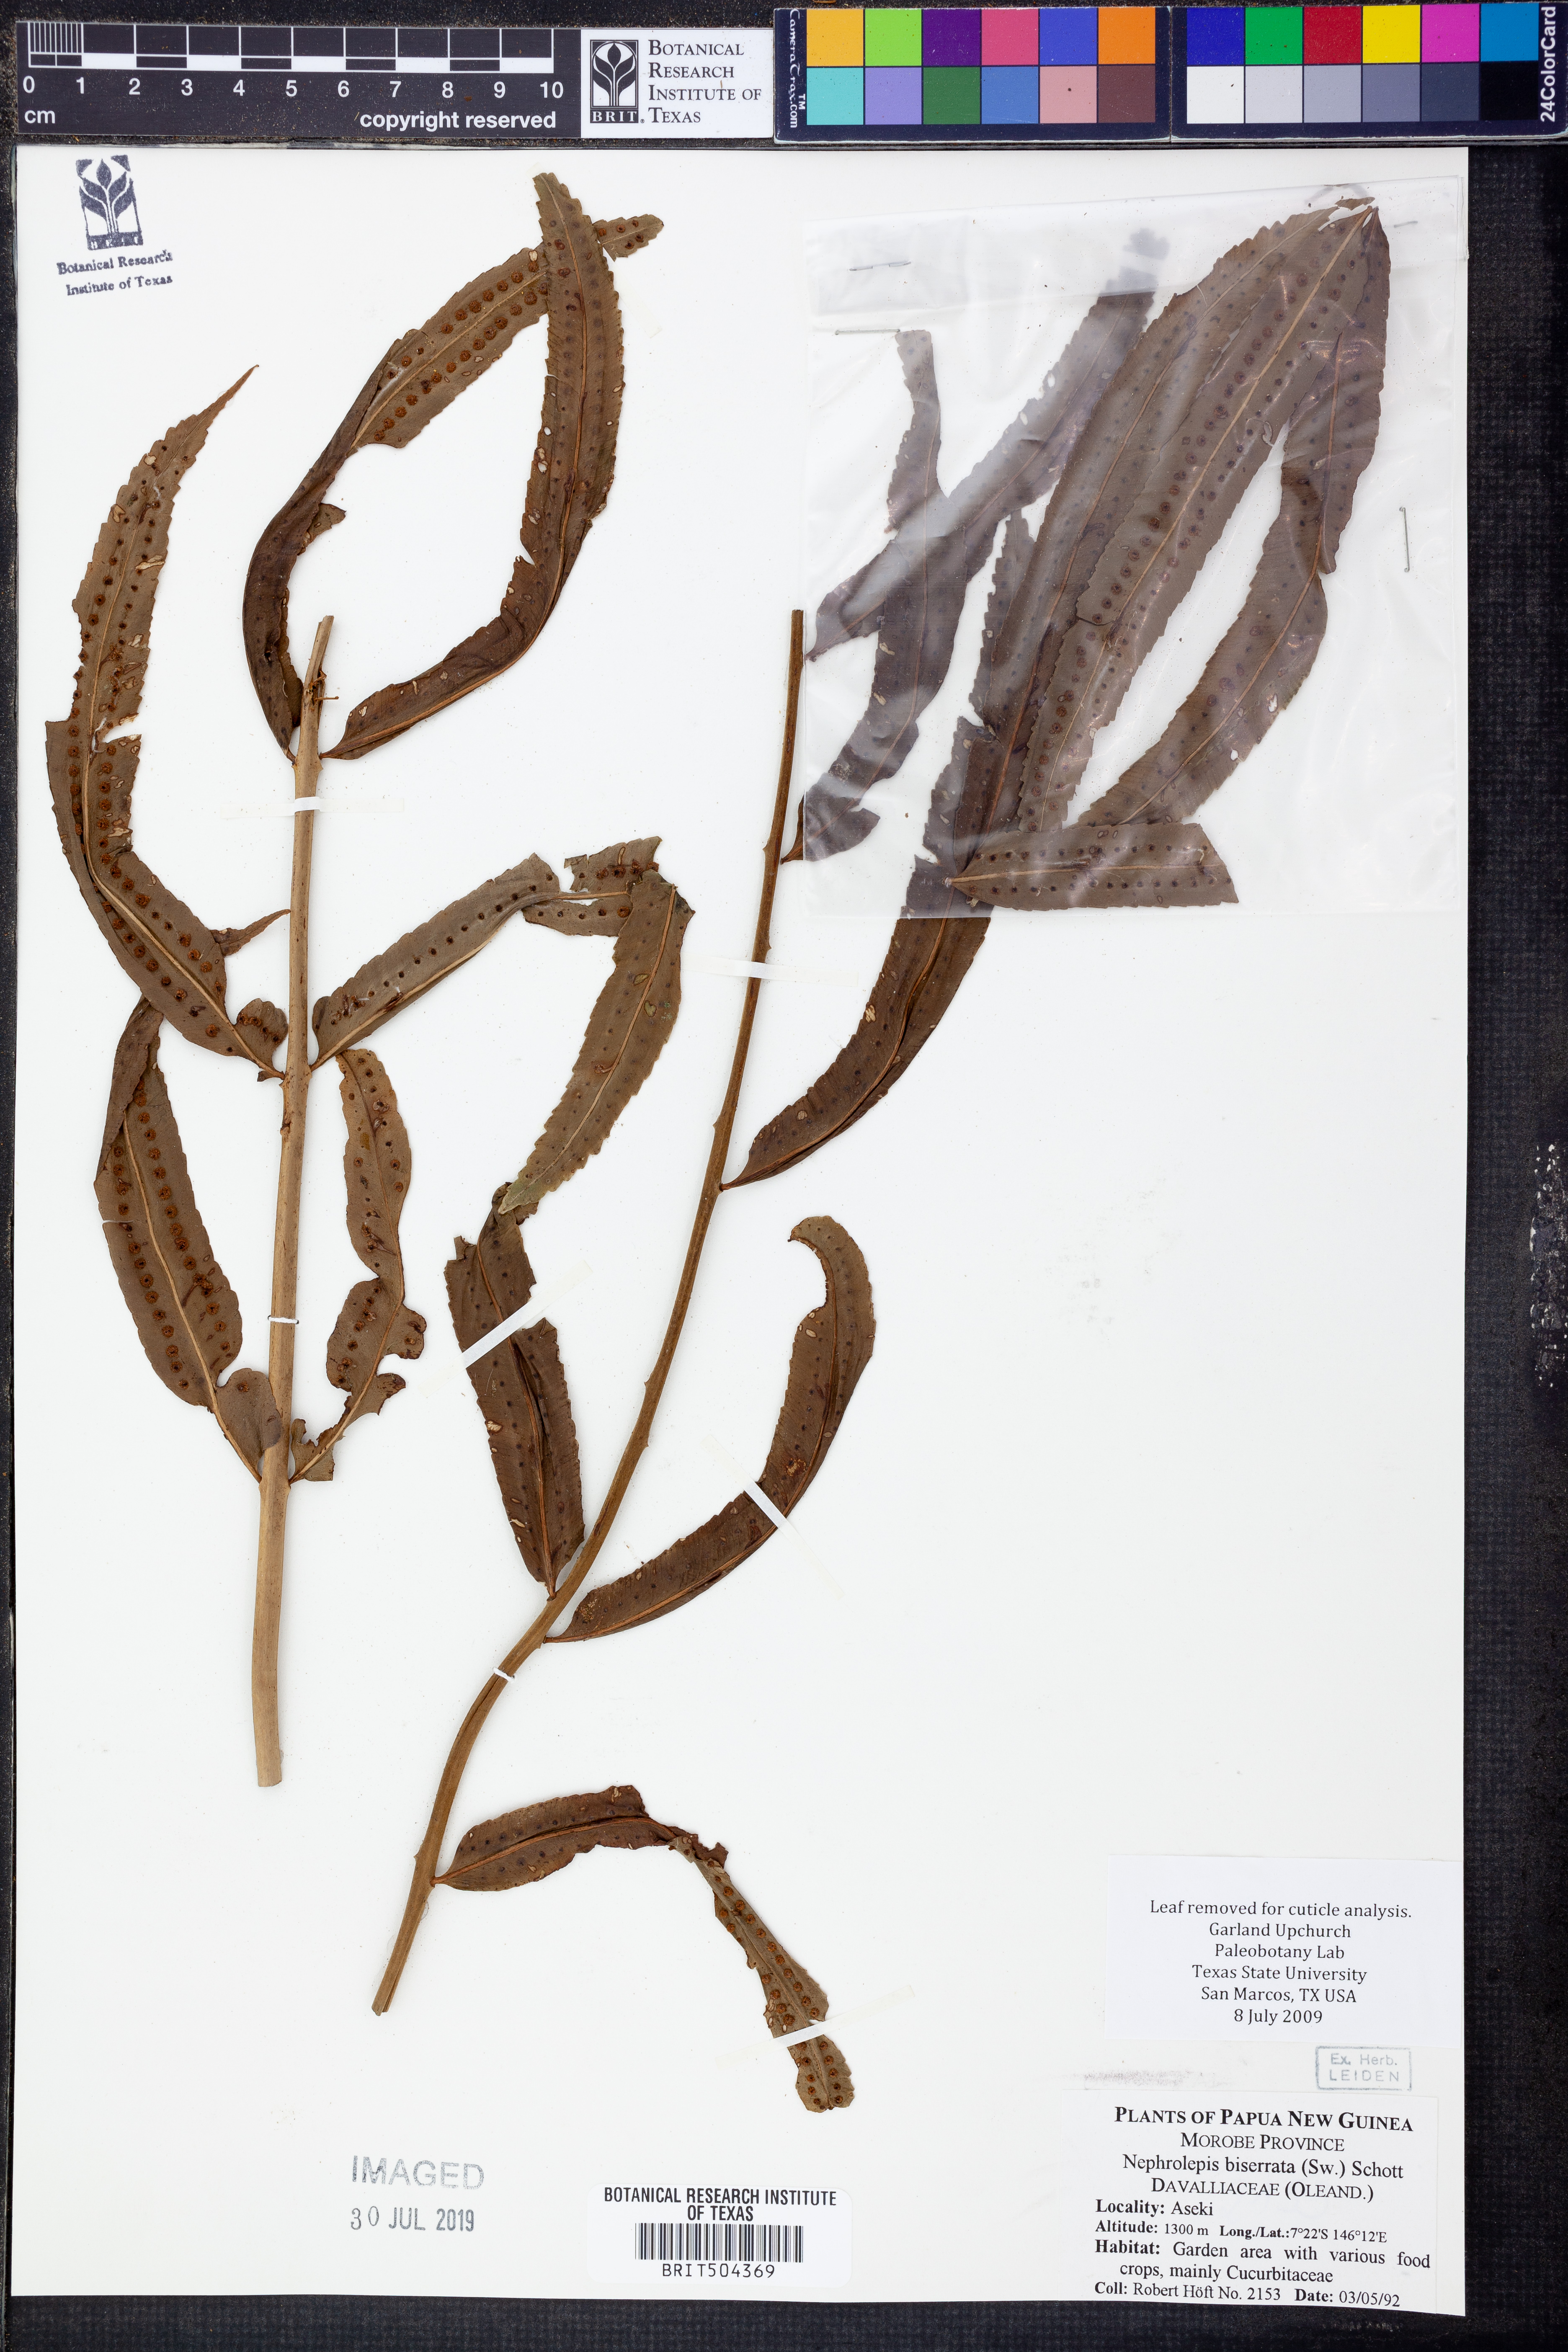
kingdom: Plantae
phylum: Tracheophyta
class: Polypodiopsida
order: Polypodiales
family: Nephrolepidaceae
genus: Nephrolepis
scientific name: Nephrolepis biserrata
